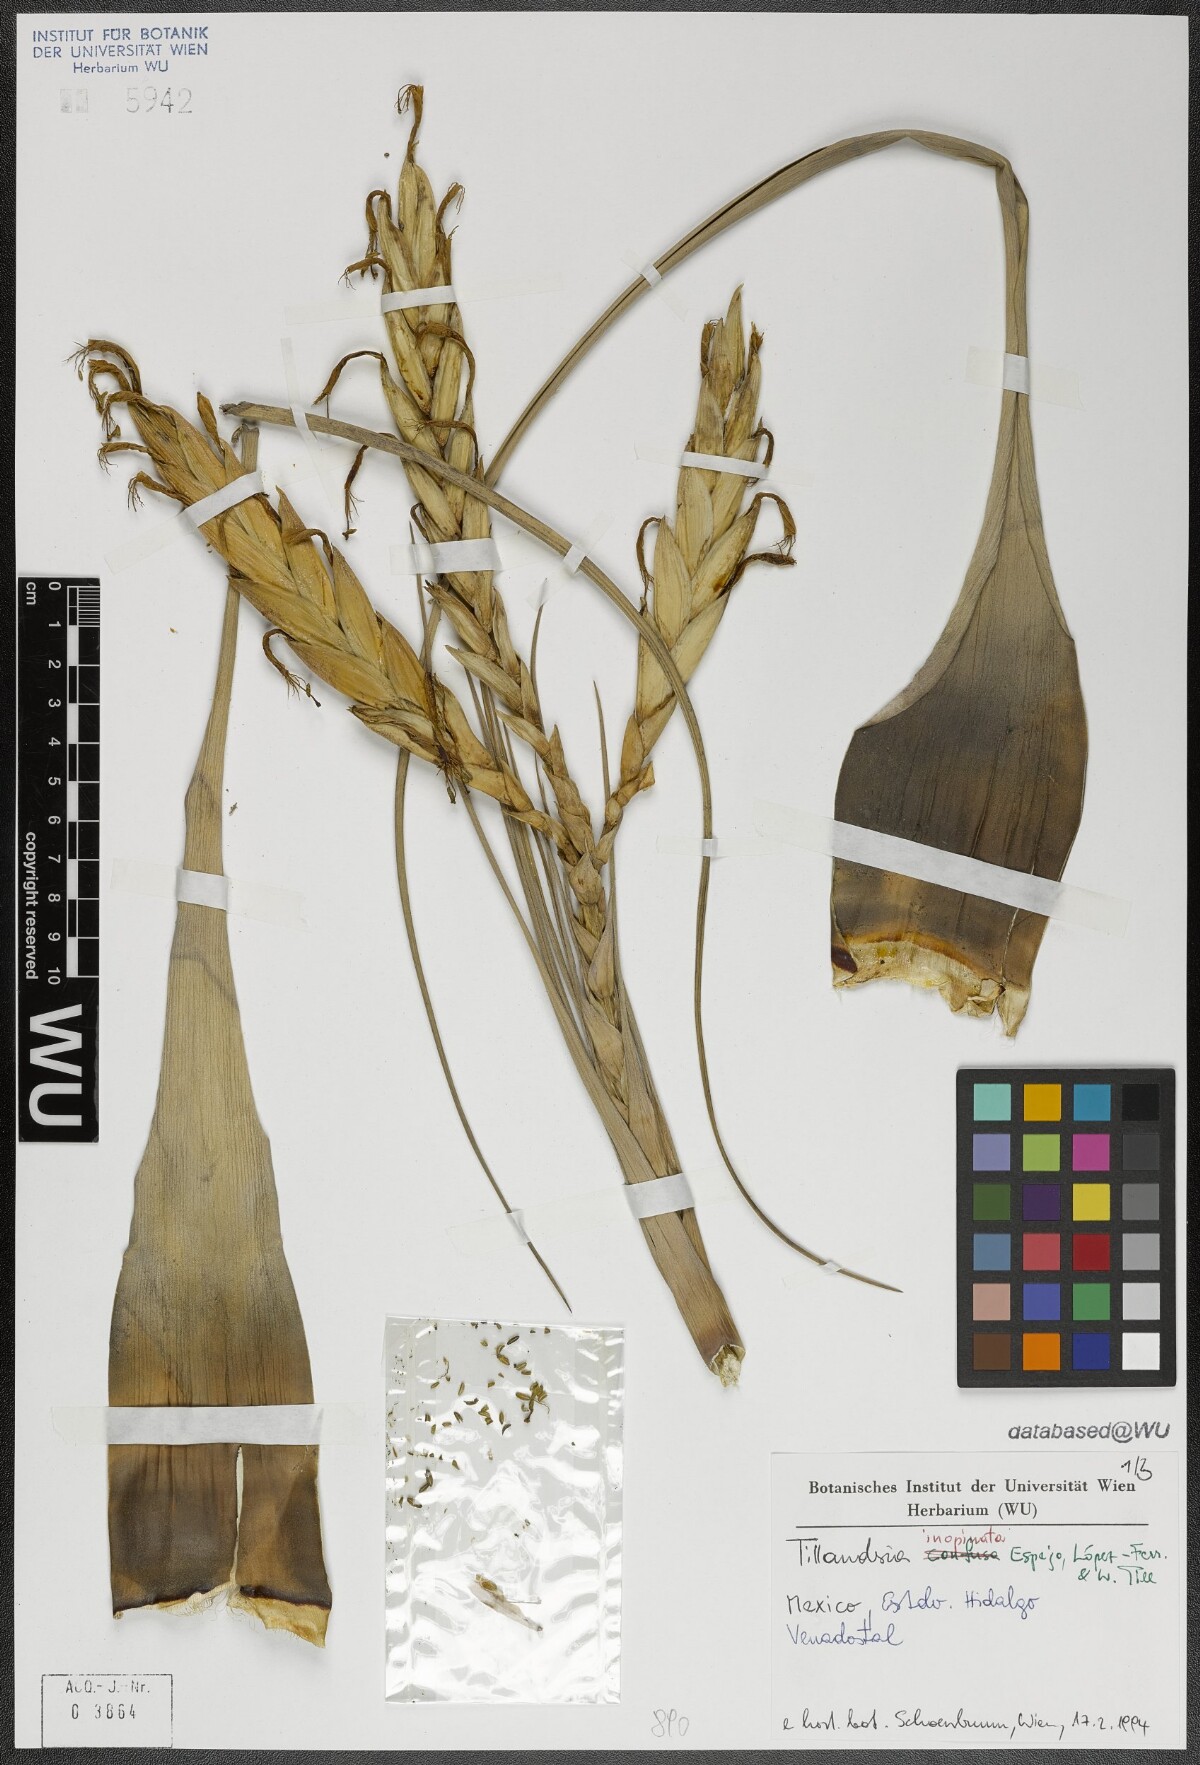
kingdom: Plantae
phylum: Tracheophyta
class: Liliopsida
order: Poales
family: Bromeliaceae
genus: Tillandsia
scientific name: Tillandsia inopinata
